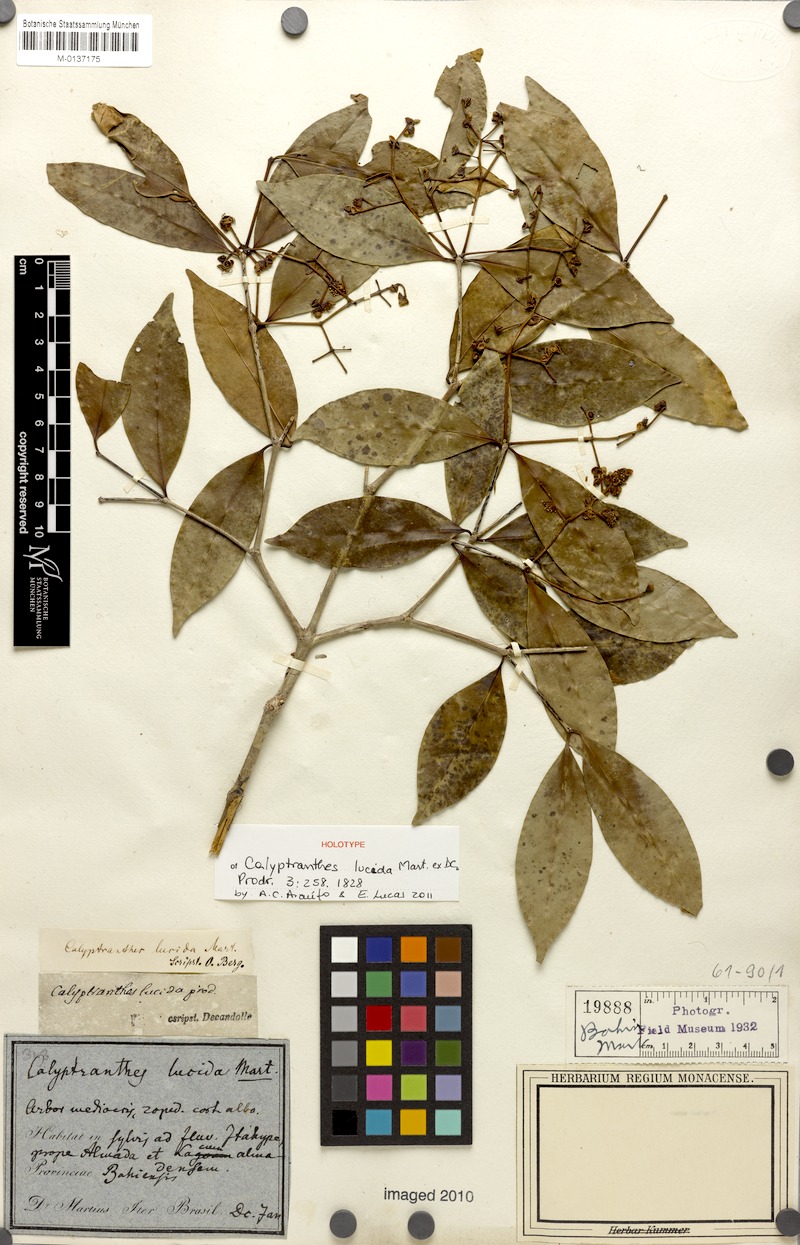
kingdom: Plantae
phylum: Tracheophyta
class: Magnoliopsida
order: Myrtales
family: Myrtaceae
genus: Myrcia
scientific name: Myrcia neolucida
